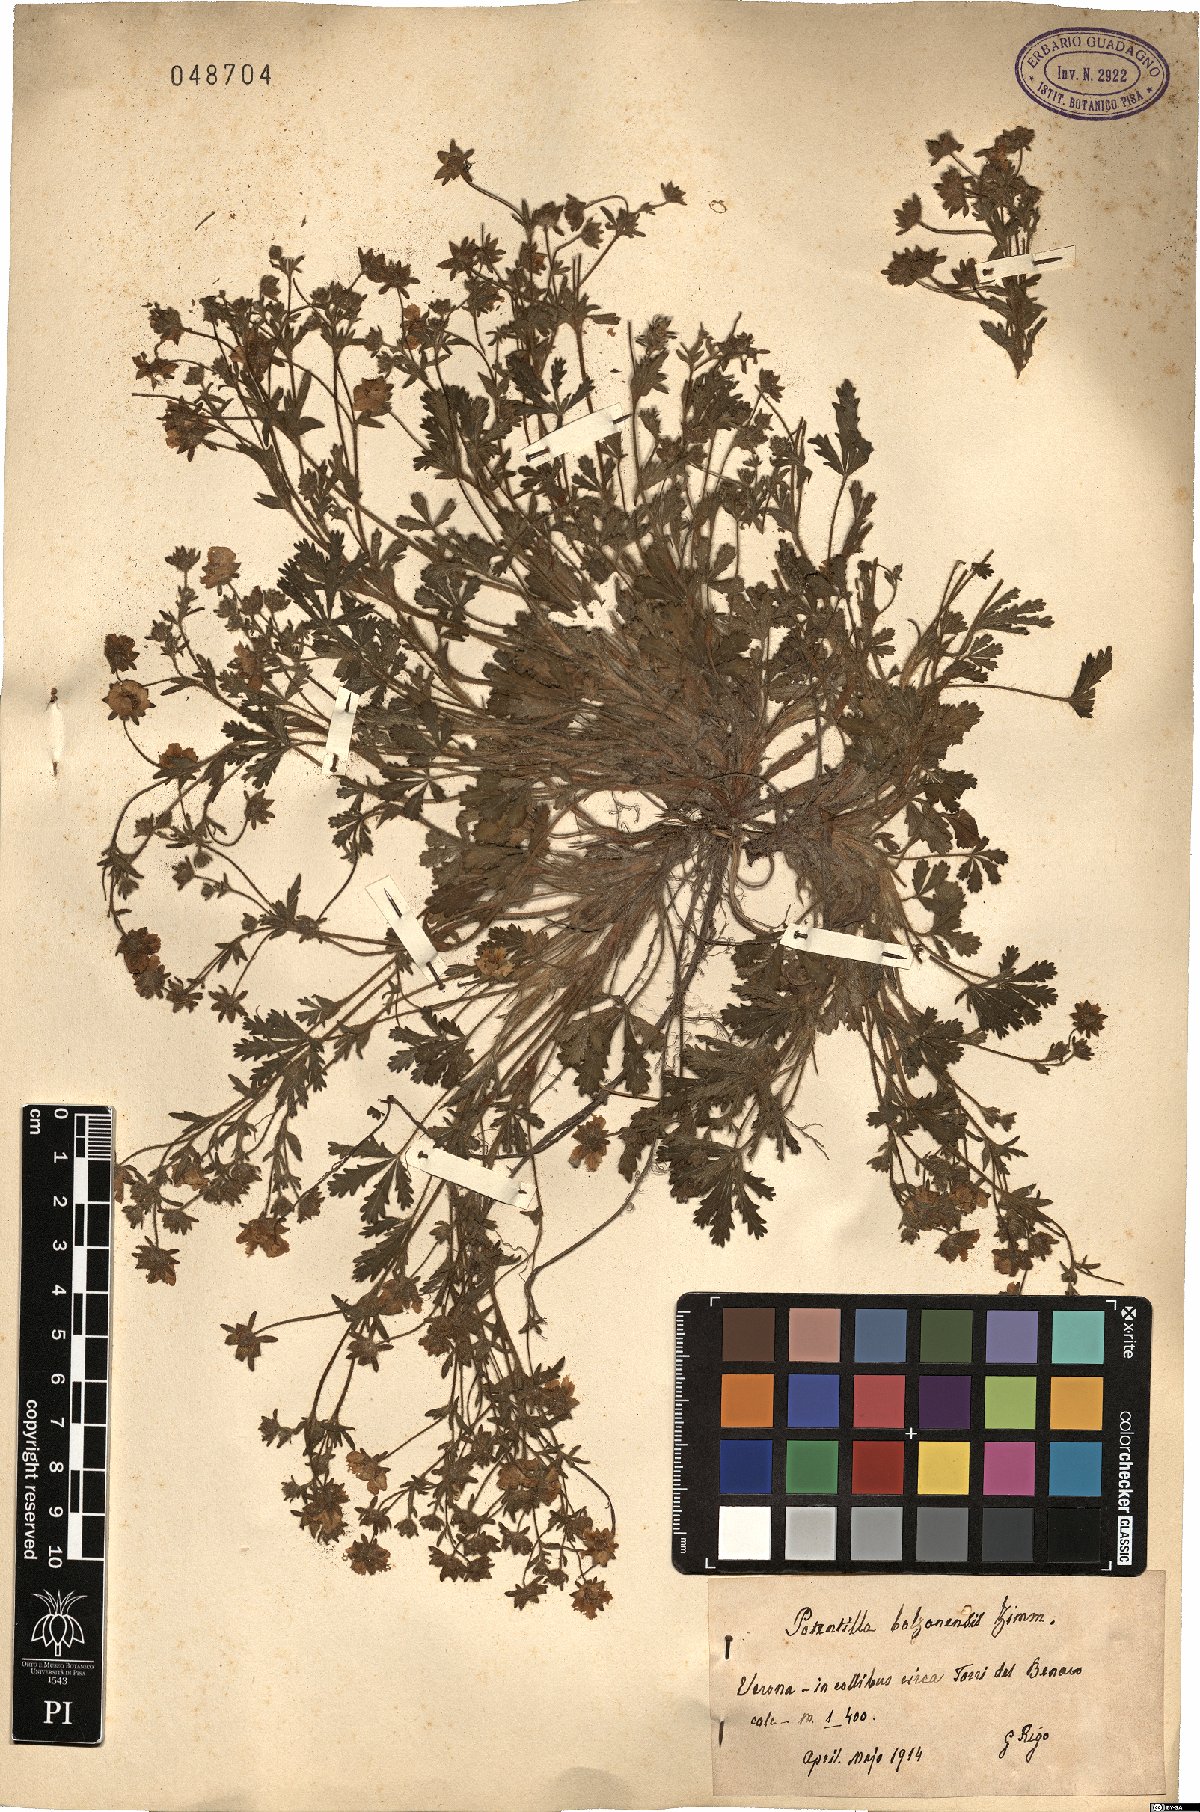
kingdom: Plantae
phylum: Tracheophyta
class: Magnoliopsida
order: Rosales
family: Rosaceae
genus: Potentilla
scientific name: Potentilla cinerea
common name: Ashy cinquefoil
